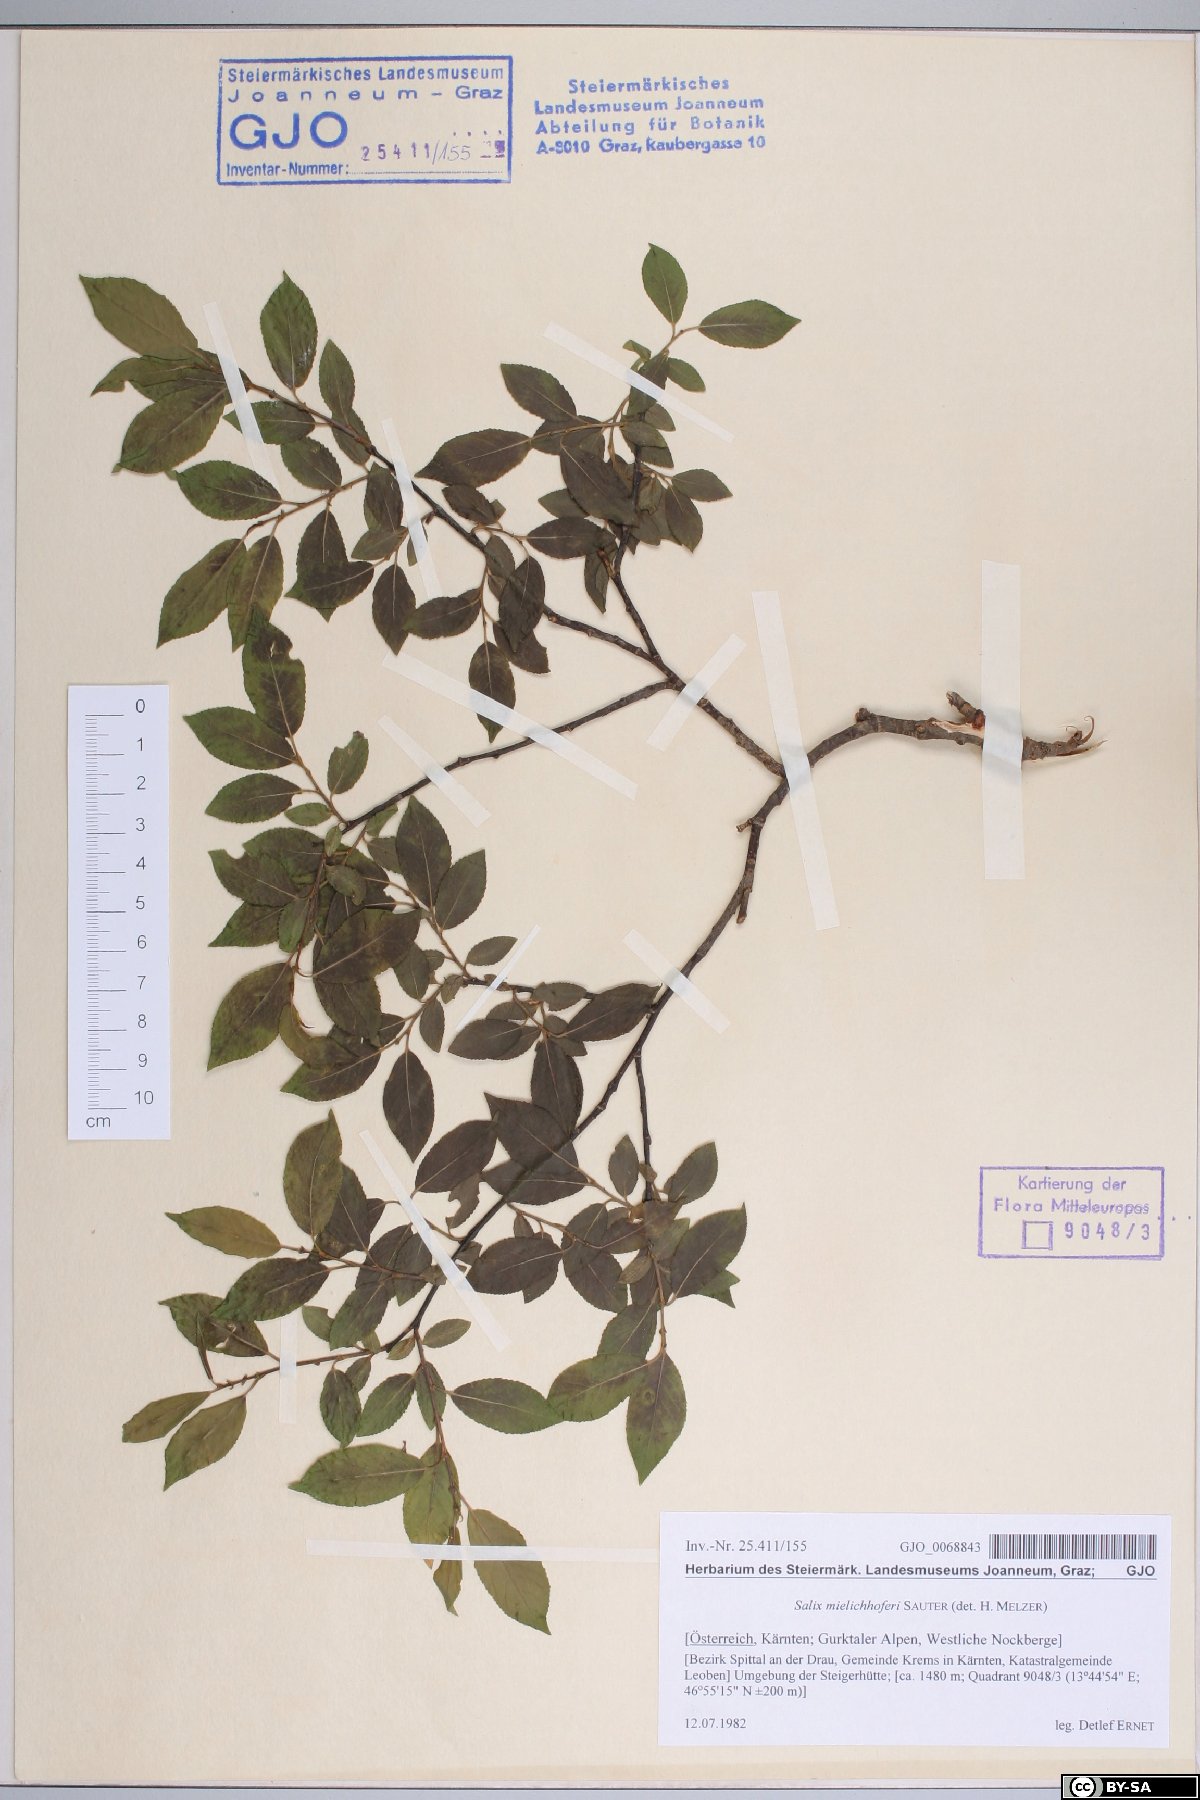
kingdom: Plantae
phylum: Tracheophyta
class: Magnoliopsida
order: Malpighiales
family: Salicaceae
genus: Salix
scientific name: Salix mielichhoferi
